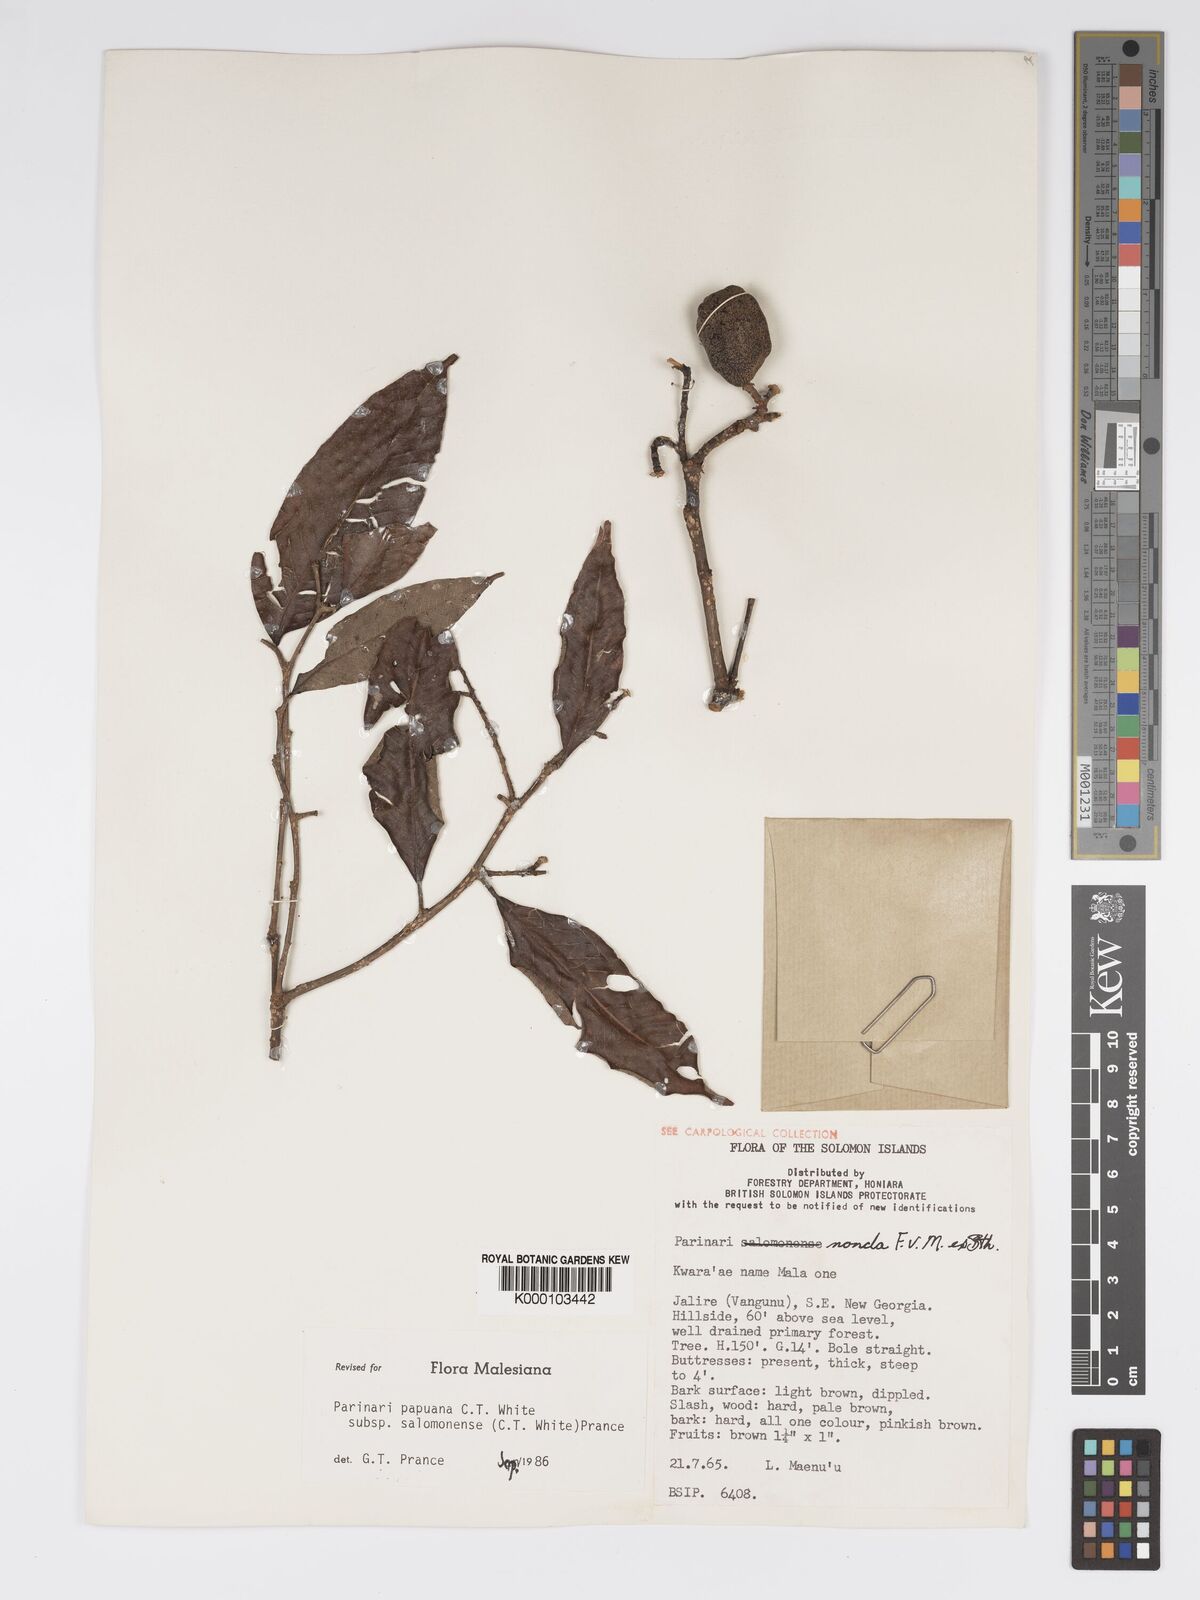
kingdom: Plantae
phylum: Tracheophyta
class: Magnoliopsida
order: Malpighiales
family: Chrysobalanaceae
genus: Parinari
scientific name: Parinari papuana
